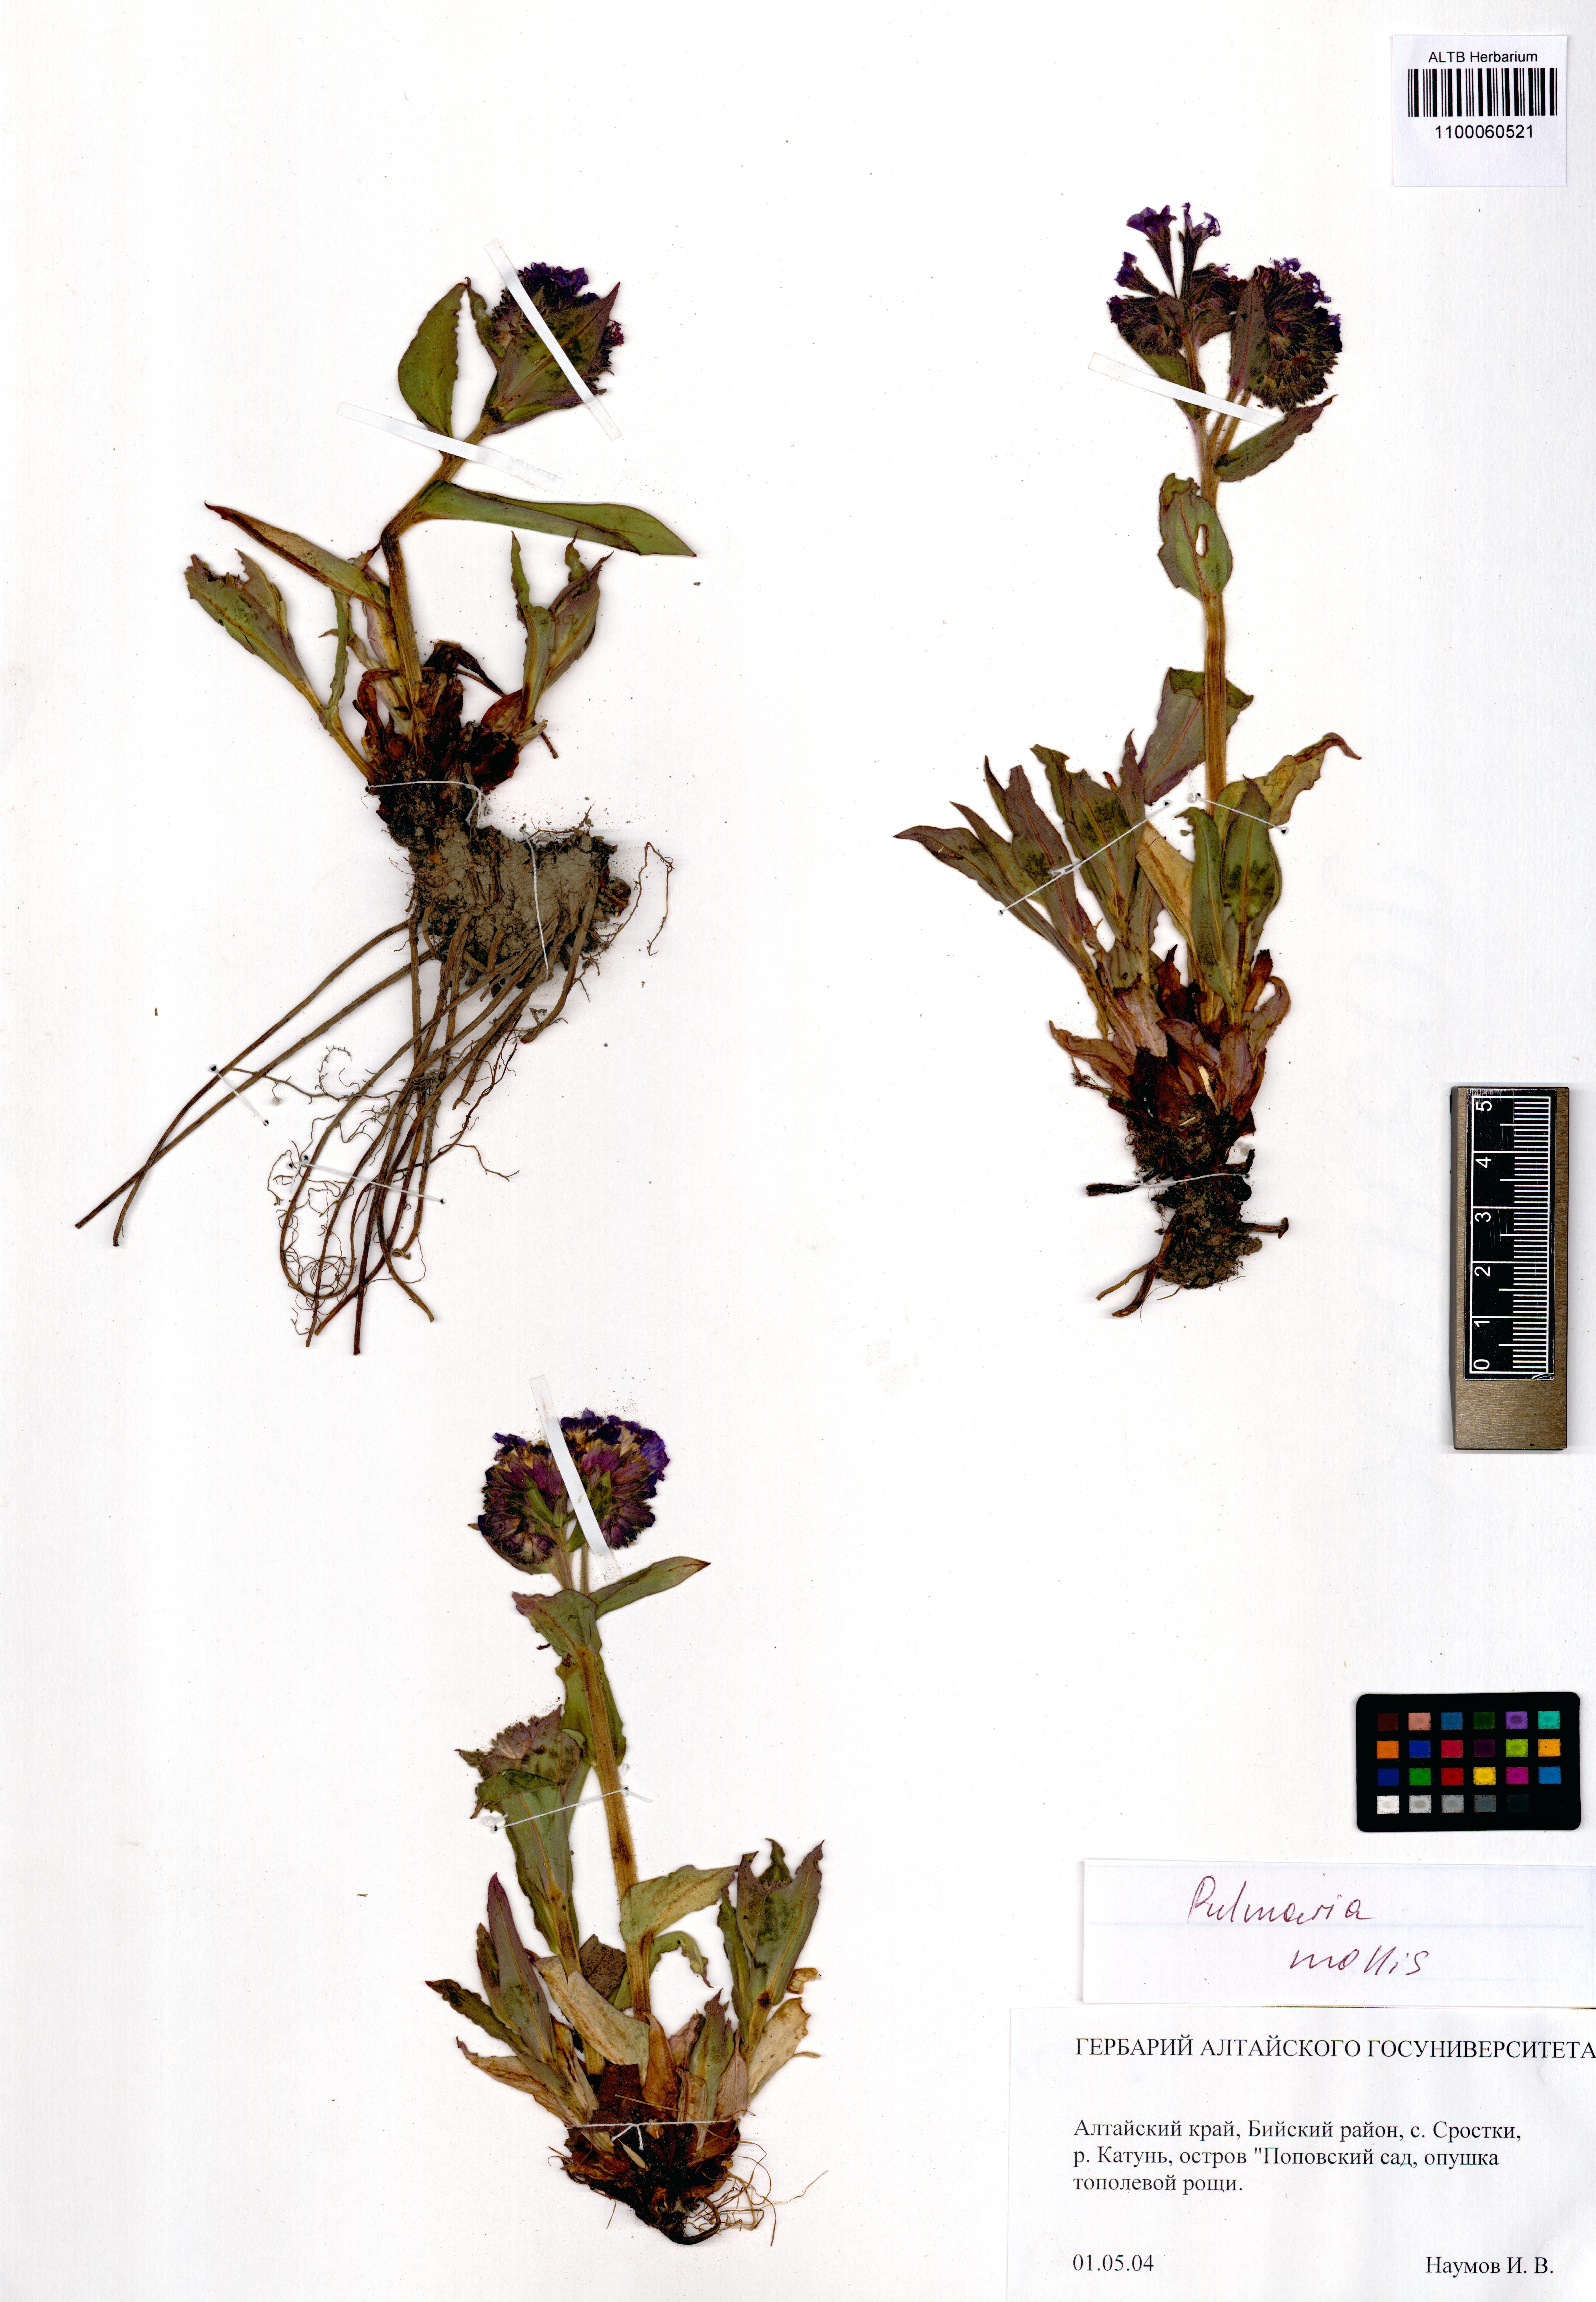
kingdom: Plantae
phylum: Tracheophyta
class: Magnoliopsida
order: Boraginales
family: Boraginaceae
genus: Pulmonaria
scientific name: Pulmonaria mollis
